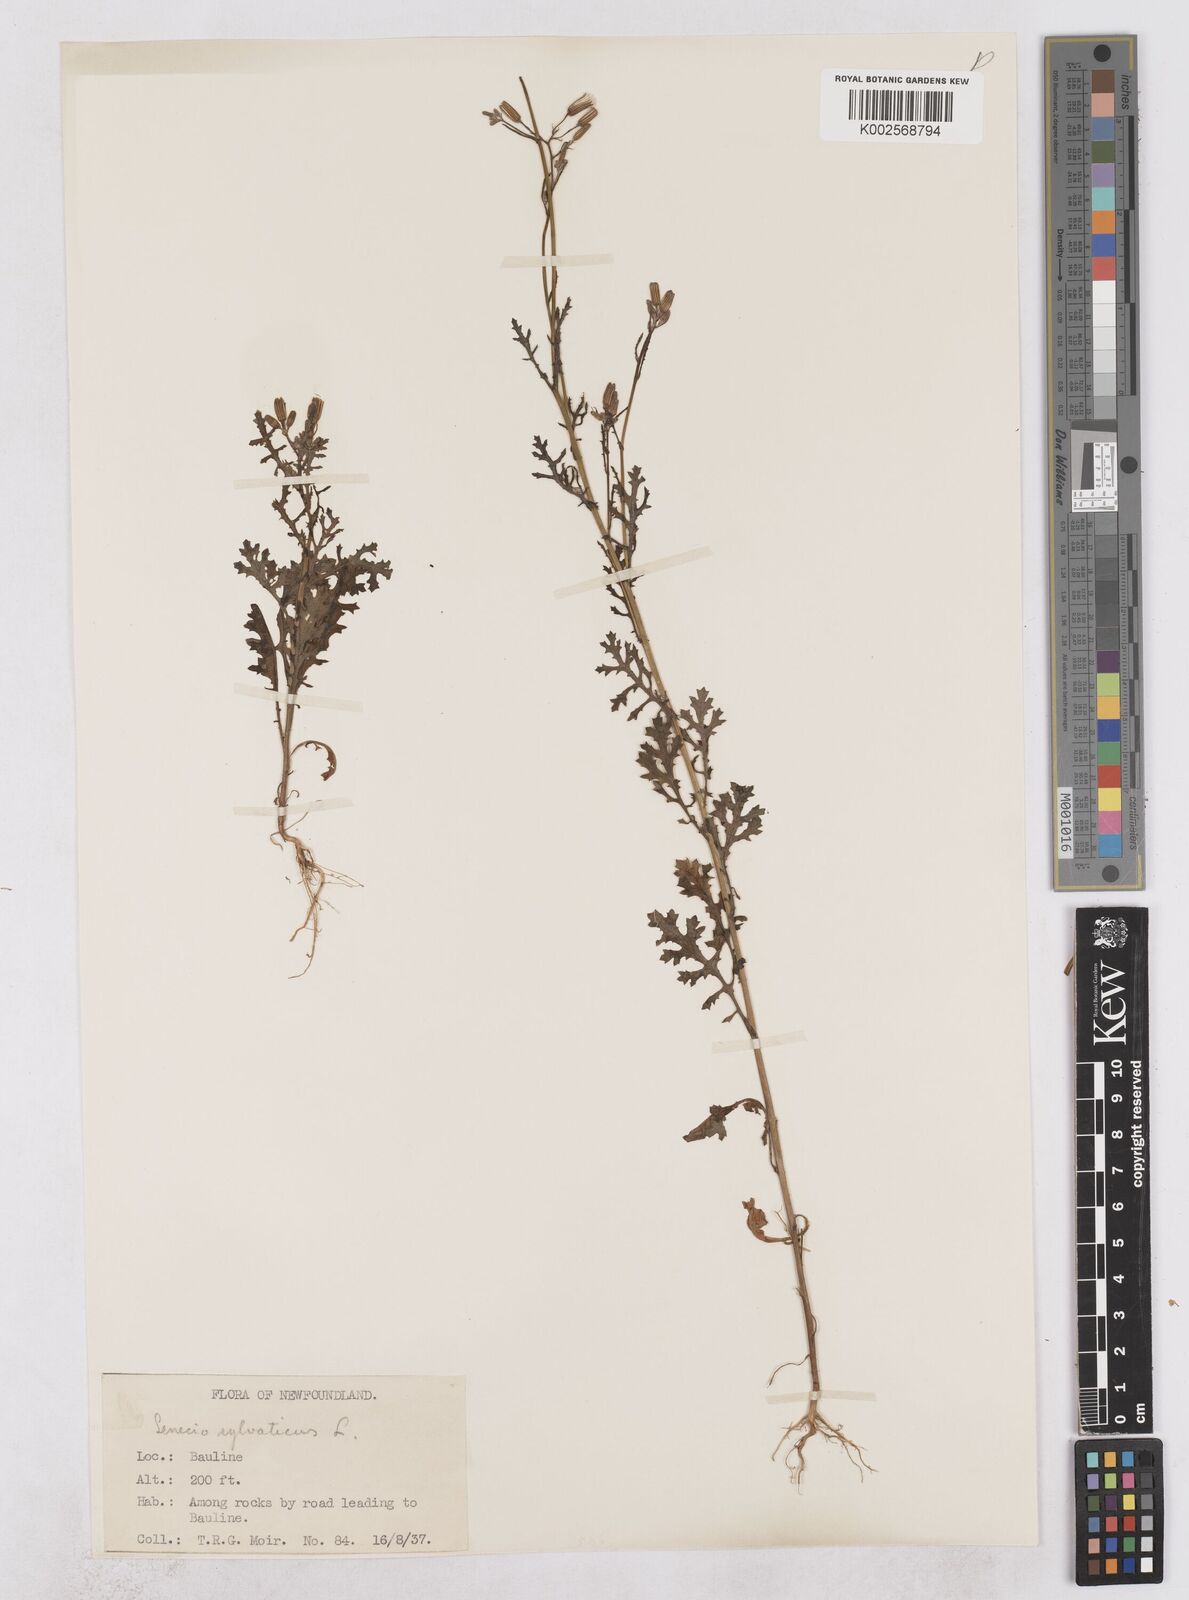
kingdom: Plantae
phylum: Tracheophyta
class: Magnoliopsida
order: Asterales
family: Asteraceae
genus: Senecio
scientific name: Senecio sylvaticus
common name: Woodland ragwort
